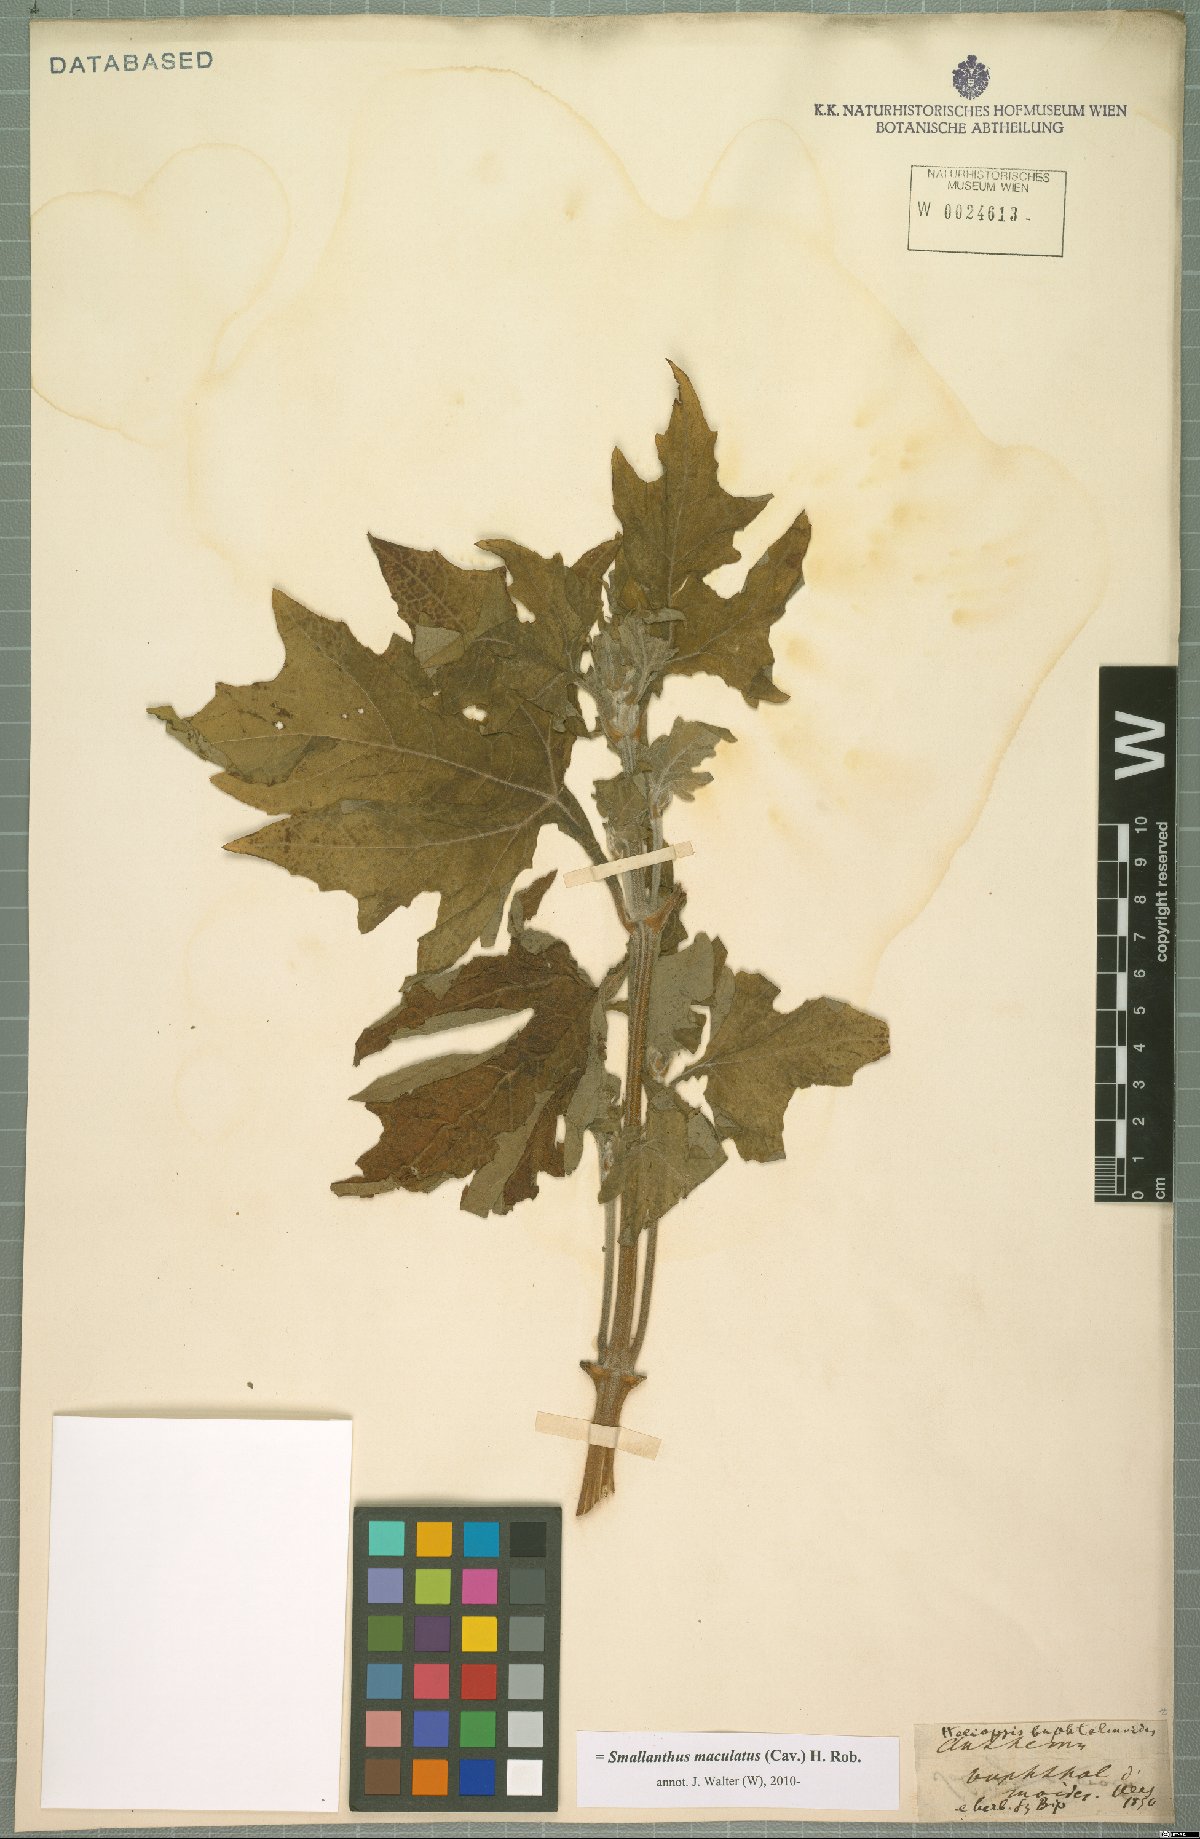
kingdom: Plantae
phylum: Tracheophyta
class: Magnoliopsida
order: Asterales
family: Asteraceae
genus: Smallanthus
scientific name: Smallanthus maculatus
